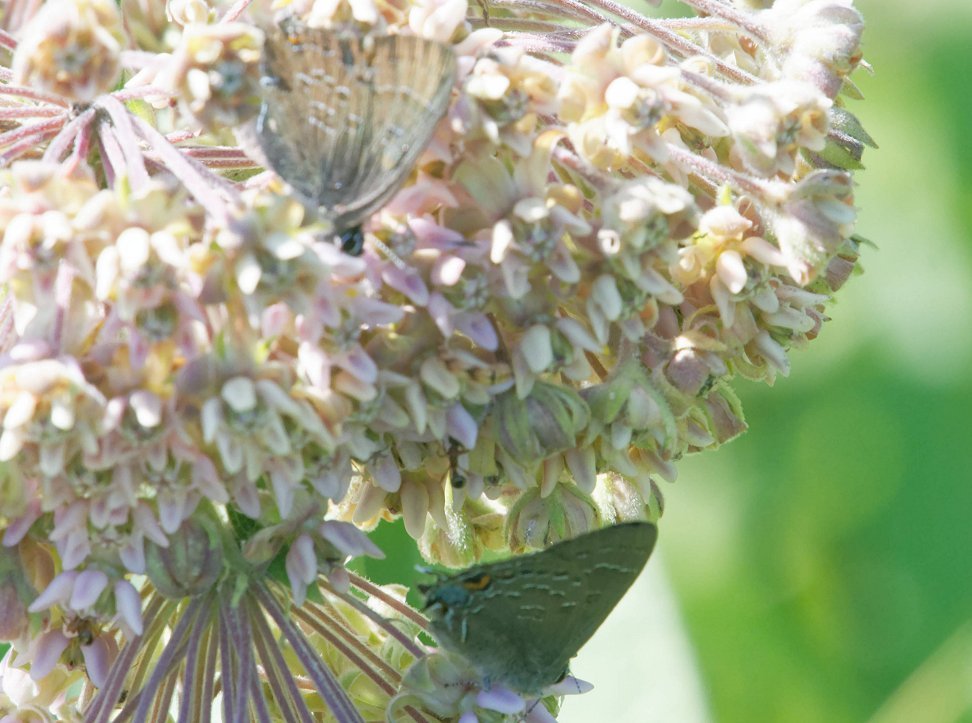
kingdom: Animalia
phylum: Arthropoda
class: Insecta
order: Lepidoptera
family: Lycaenidae
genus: Satyrium
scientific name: Satyrium calanus
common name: Banded Hairstreak
